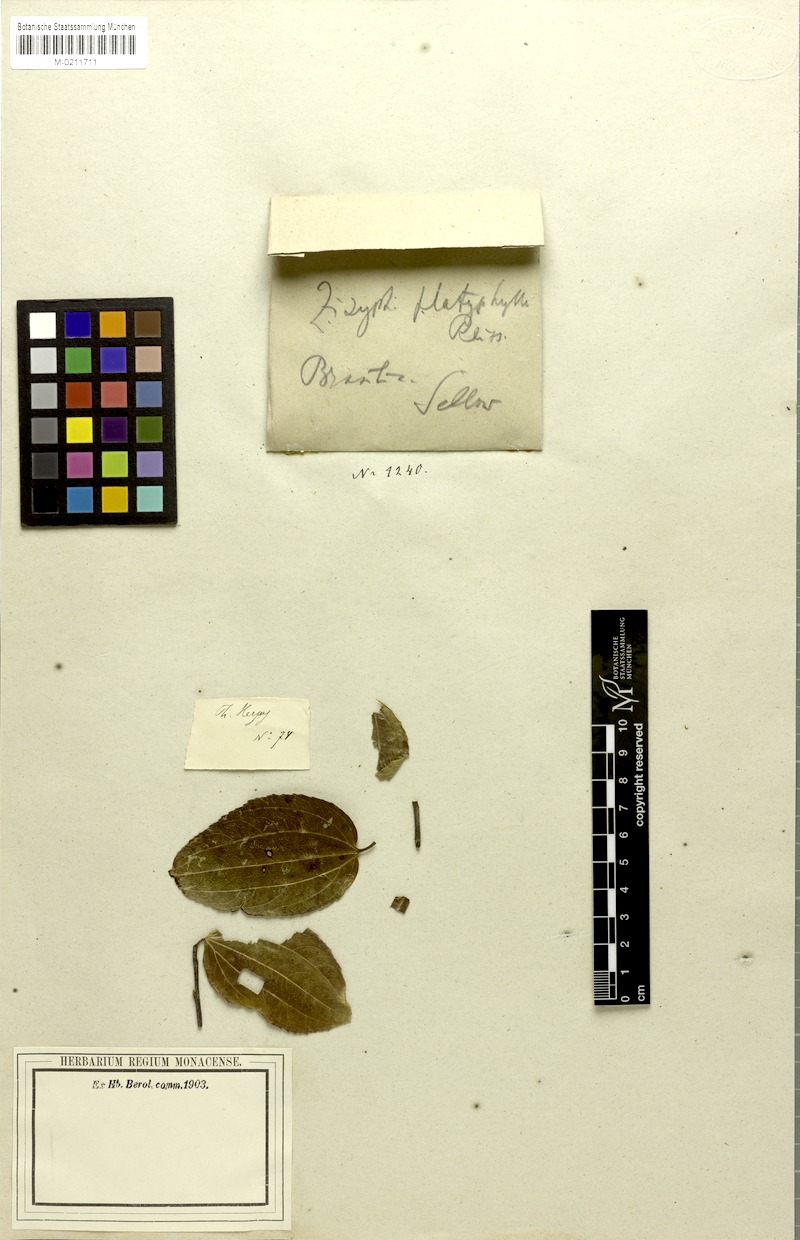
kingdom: Plantae
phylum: Tracheophyta
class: Magnoliopsida
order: Rosales
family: Rhamnaceae
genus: Sarcomphalus
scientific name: Sarcomphalus platyphyllus
